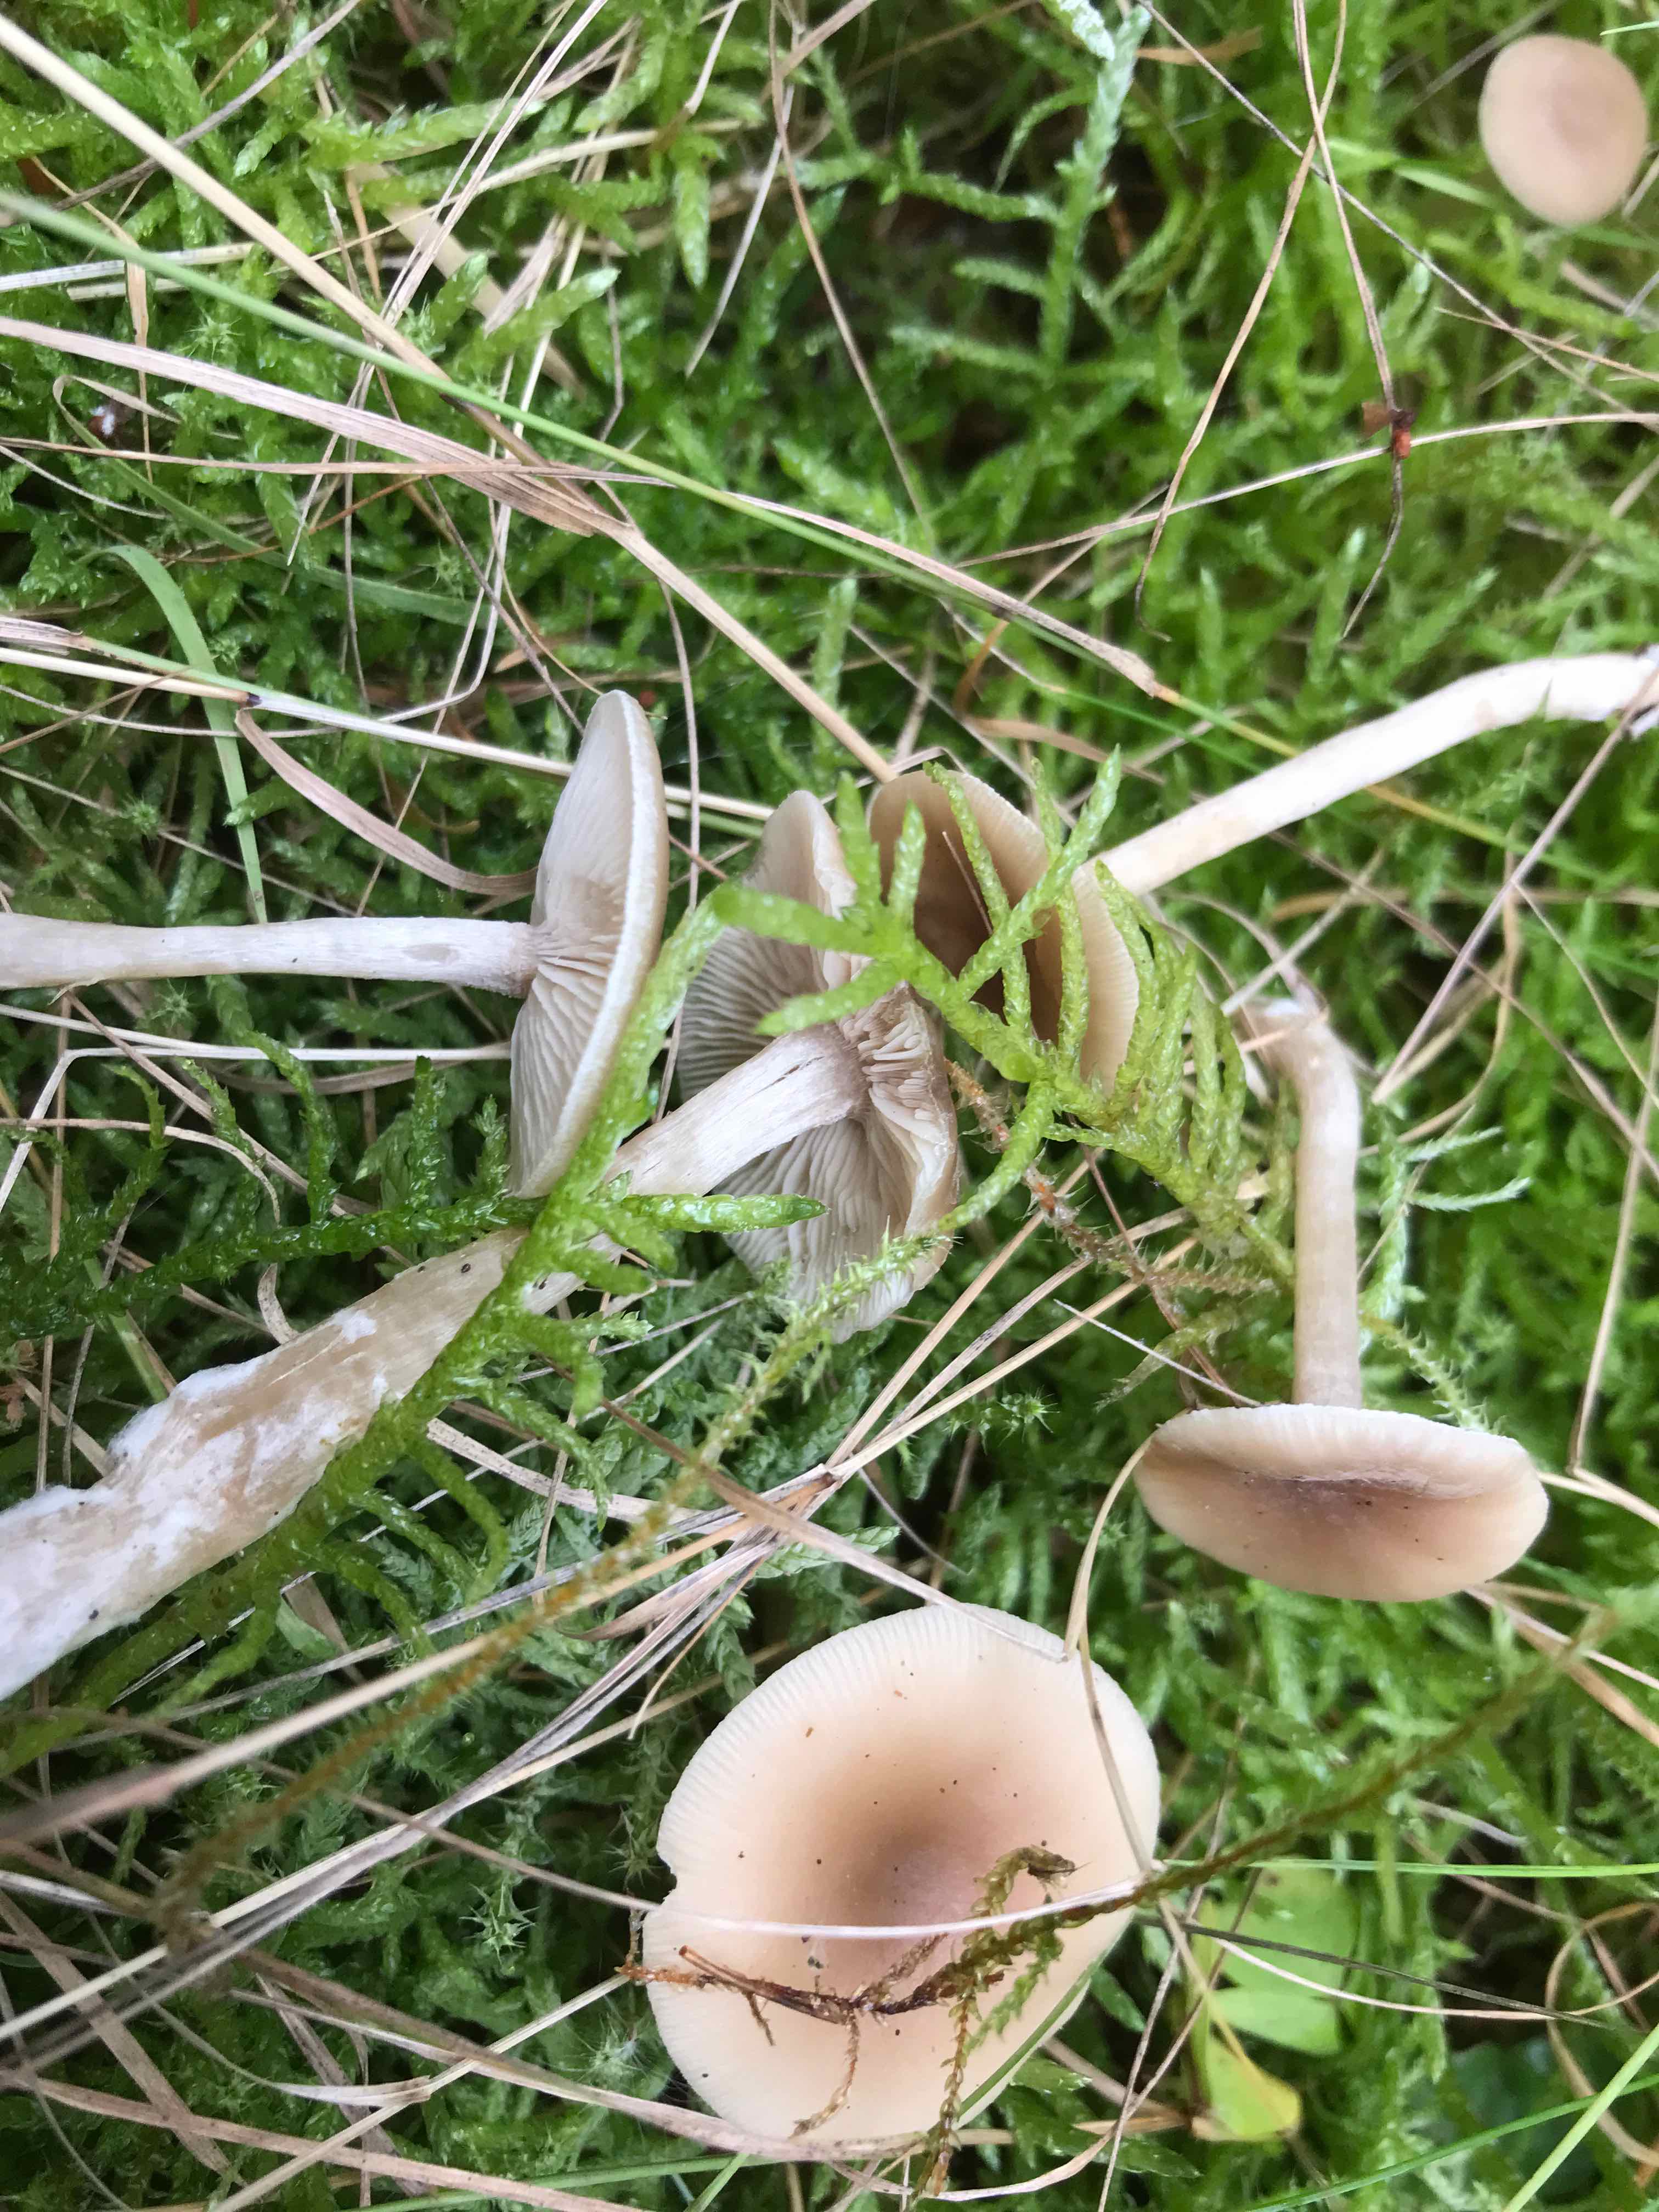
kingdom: Fungi
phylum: Basidiomycota
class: Agaricomycetes
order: Agaricales
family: Tricholomataceae
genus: Clitocybe
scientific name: Clitocybe fragrans
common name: vellugtende tragthat
